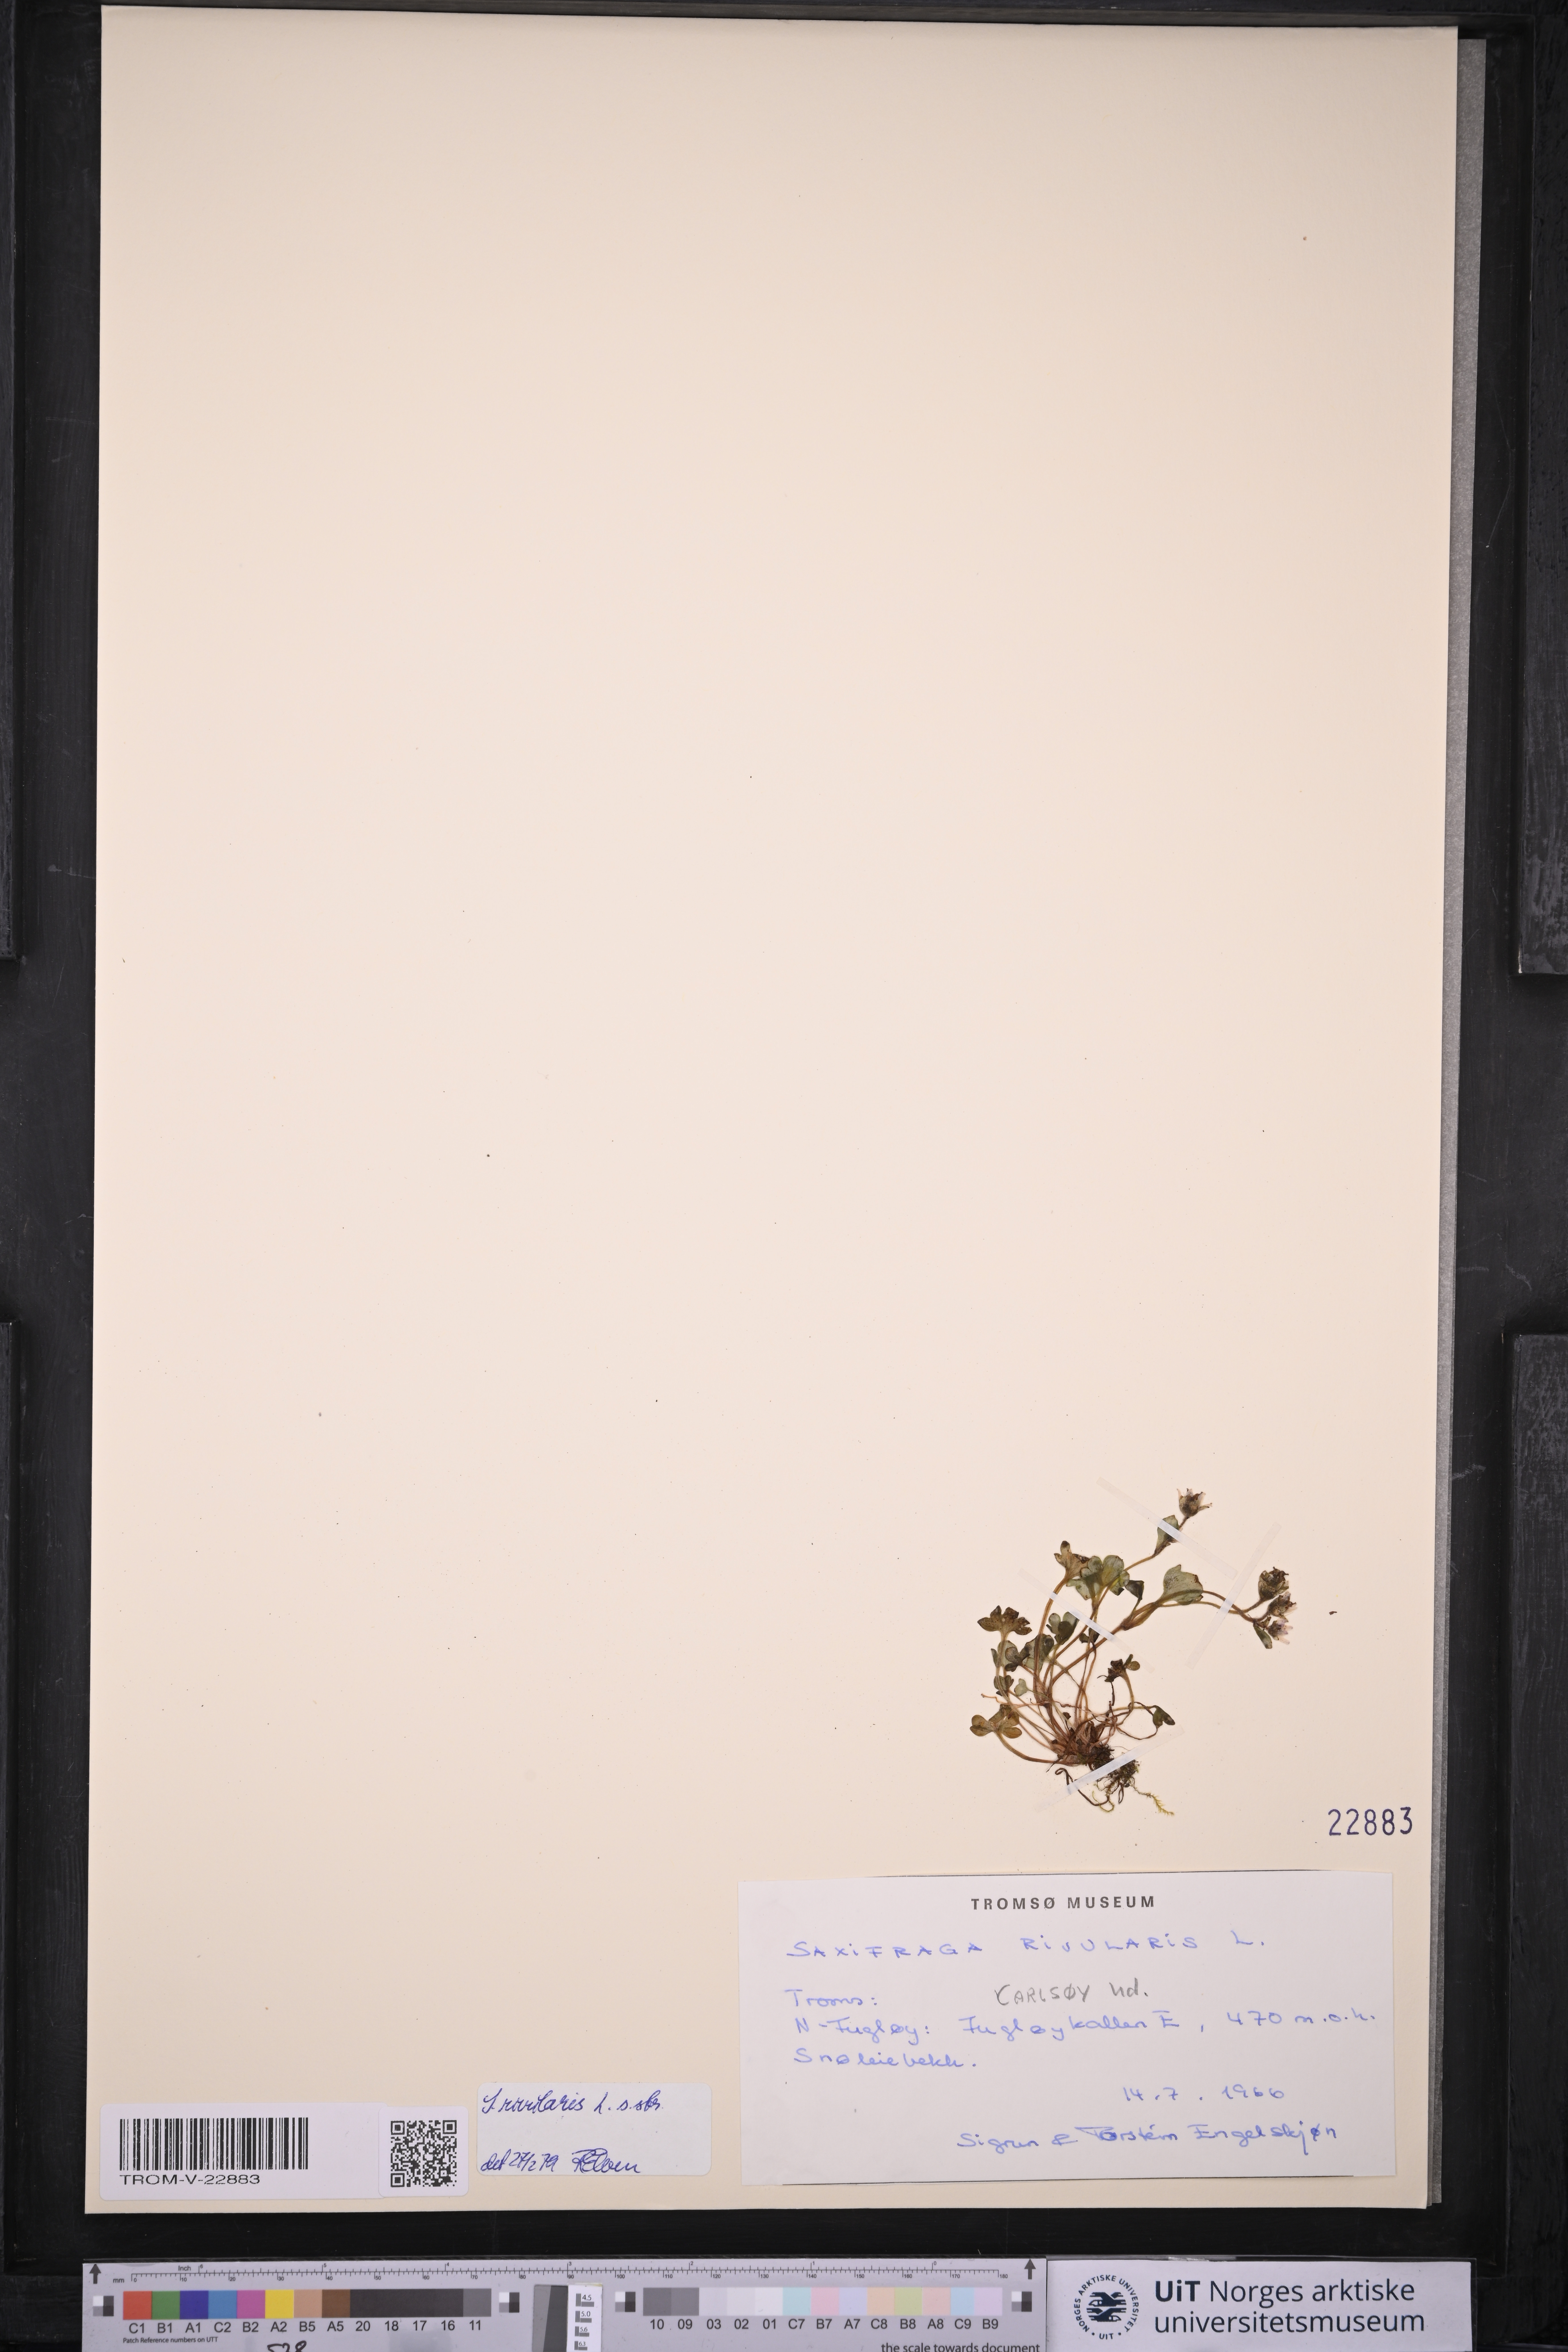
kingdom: Plantae
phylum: Tracheophyta
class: Magnoliopsida
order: Saxifragales
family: Saxifragaceae
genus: Saxifraga
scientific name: Saxifraga rivularis
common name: Highland saxifrage
